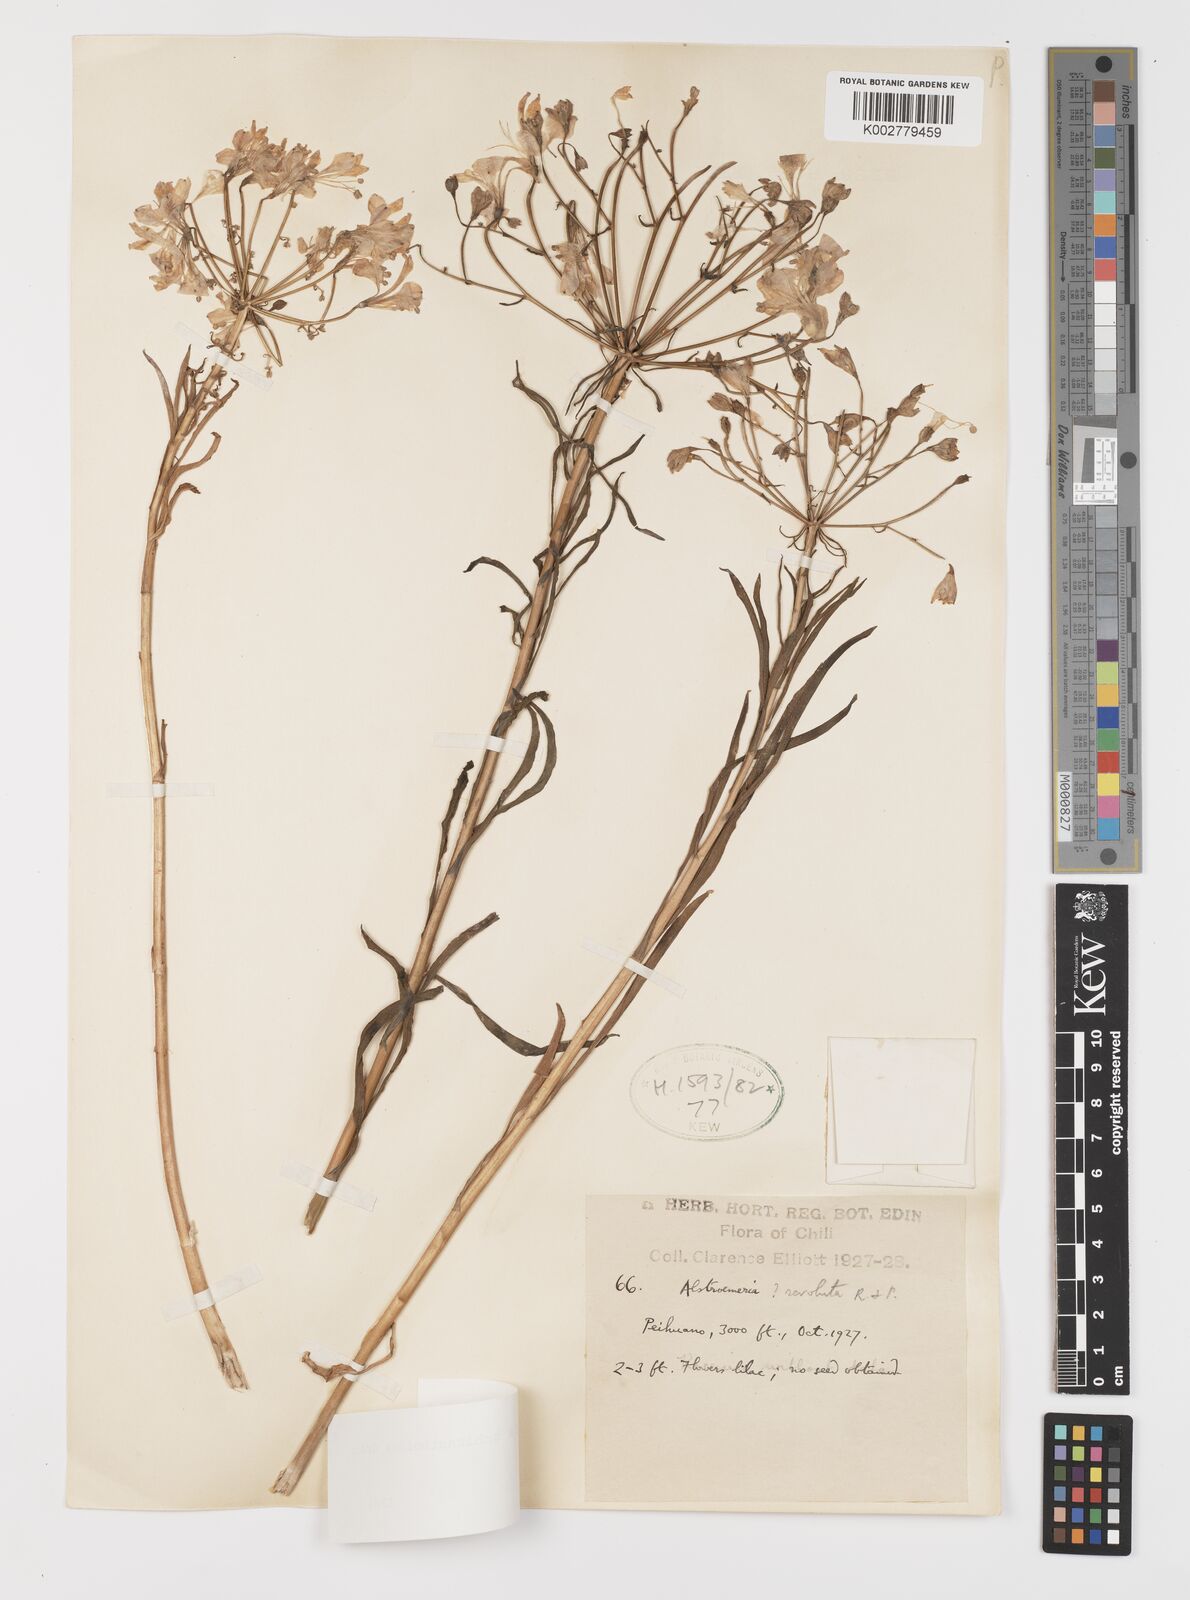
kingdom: Plantae
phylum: Tracheophyta
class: Liliopsida
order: Liliales
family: Alstroemeriaceae
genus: Alstroemeria
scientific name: Alstroemeria schizanthoides
